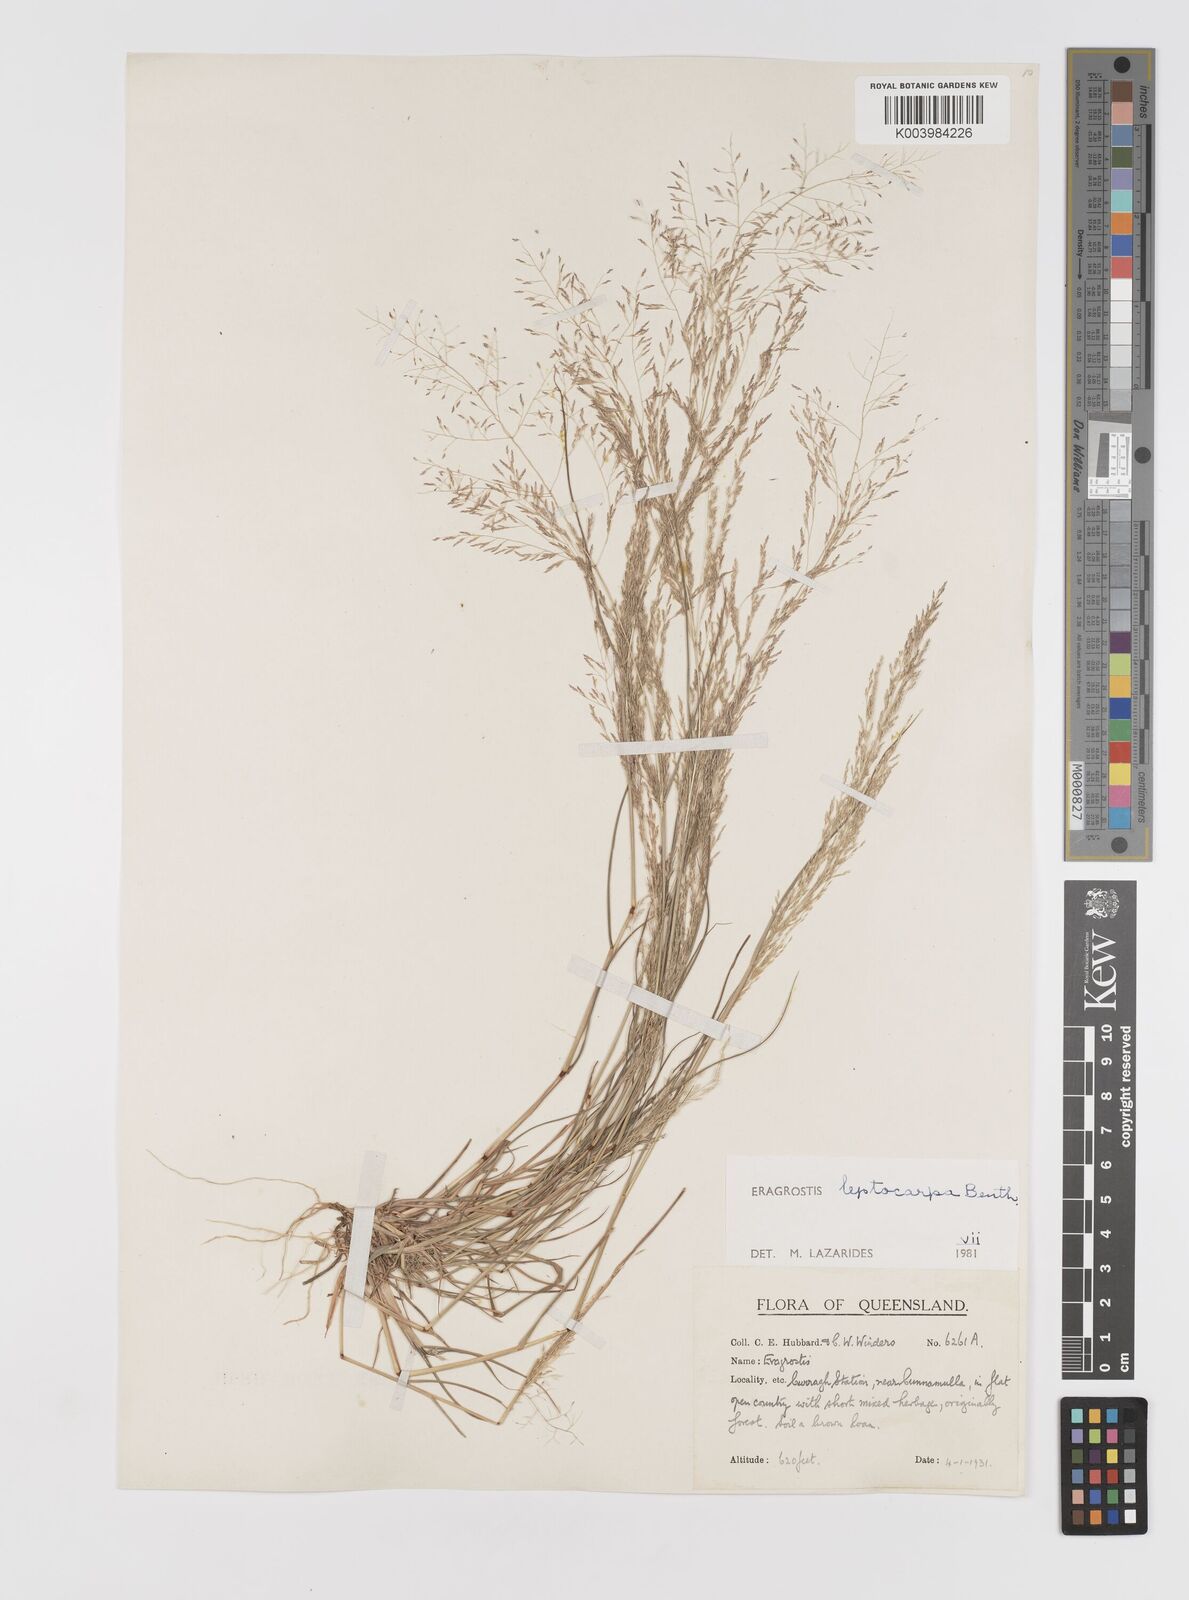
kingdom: Plantae
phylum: Tracheophyta
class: Liliopsida
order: Poales
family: Poaceae
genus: Eragrostis
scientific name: Eragrostis leptocarpa
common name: Drooping love grass
